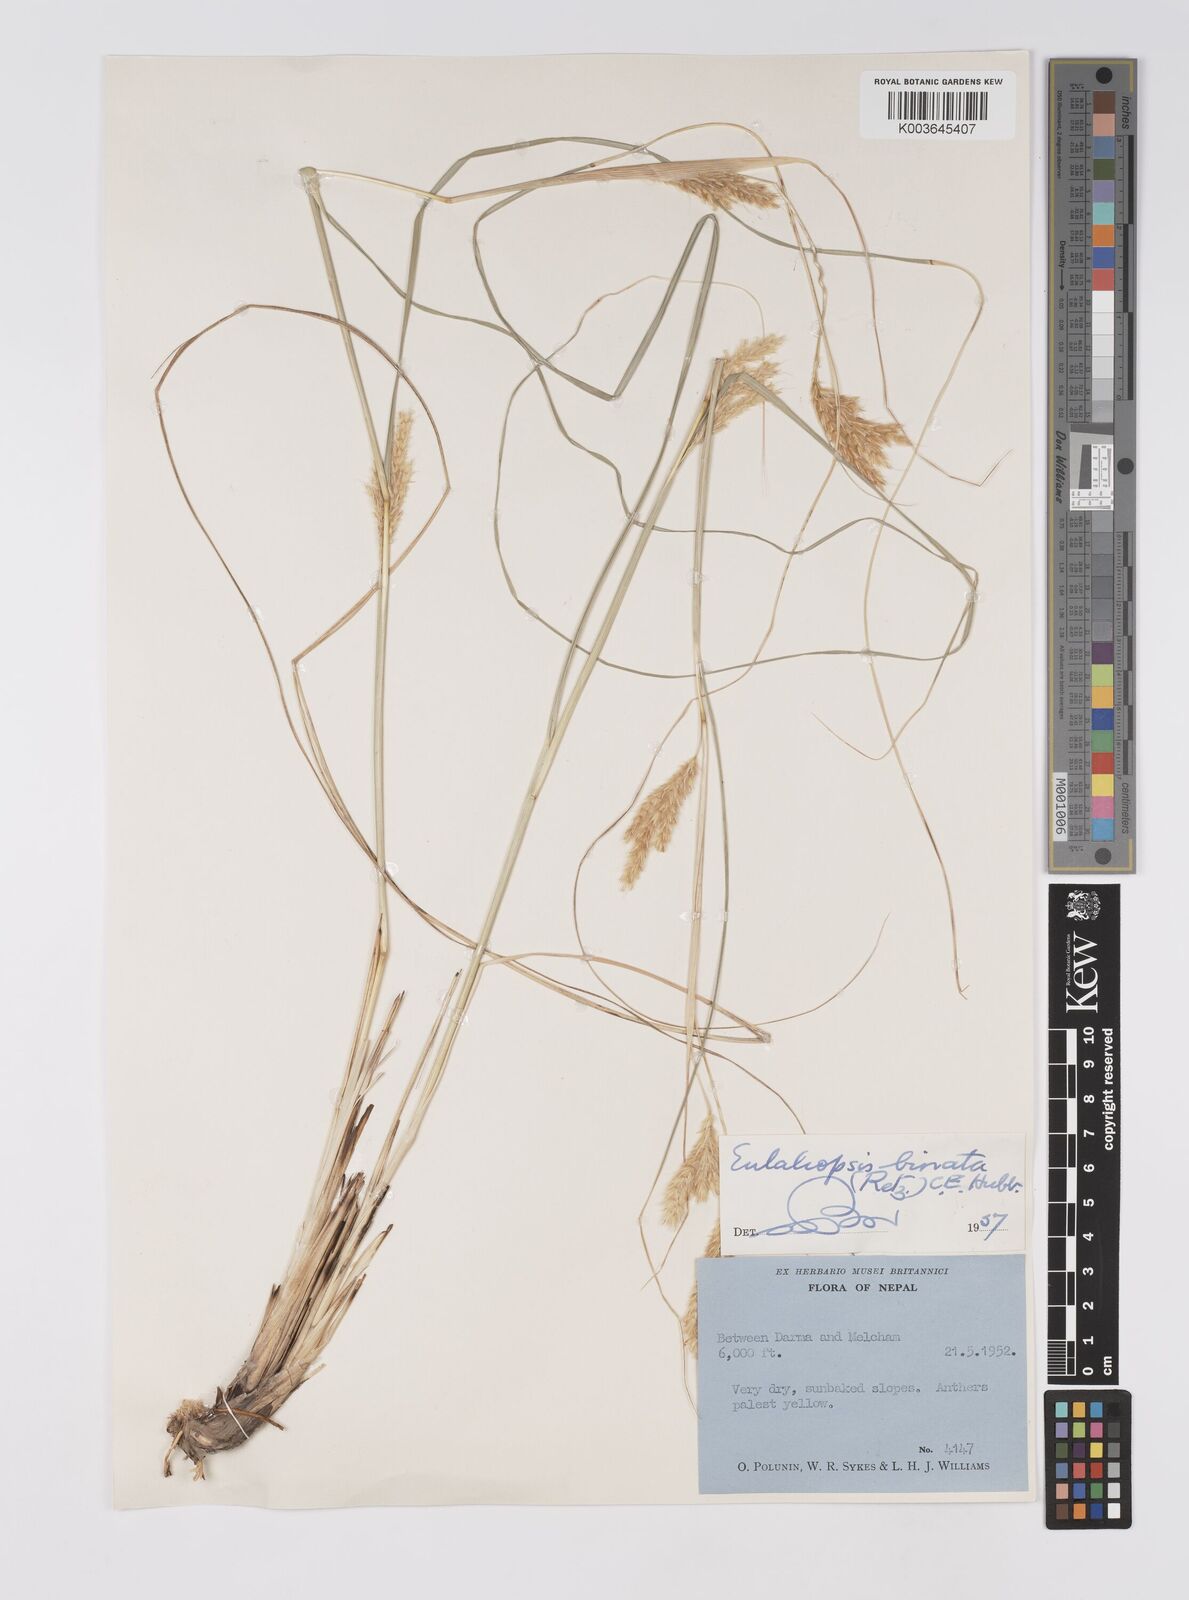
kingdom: Plantae
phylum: Tracheophyta
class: Liliopsida
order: Poales
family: Poaceae
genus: Eulaliopsis
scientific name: Eulaliopsis binata
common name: Baib grass
